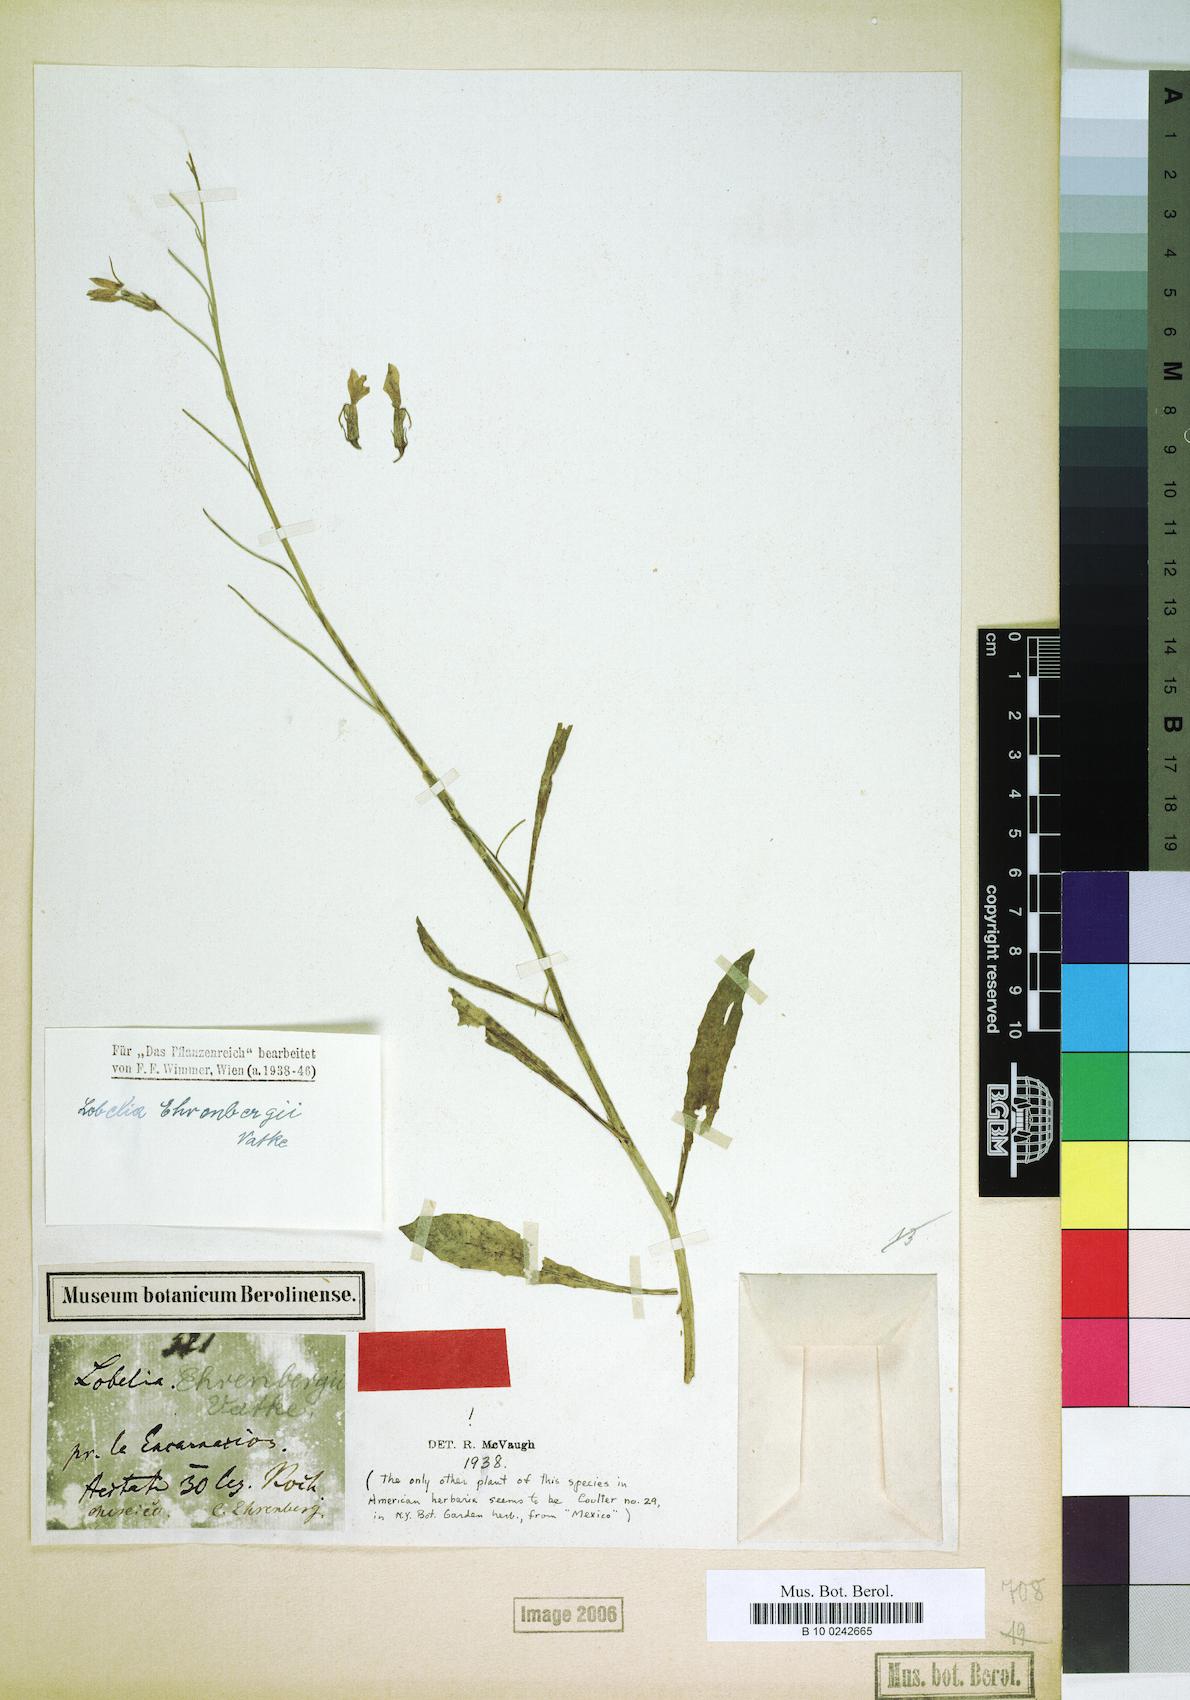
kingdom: Plantae
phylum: Tracheophyta
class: Magnoliopsida
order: Asterales
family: Campanulaceae
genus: Lobelia
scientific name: Lobelia ehrenbergii
